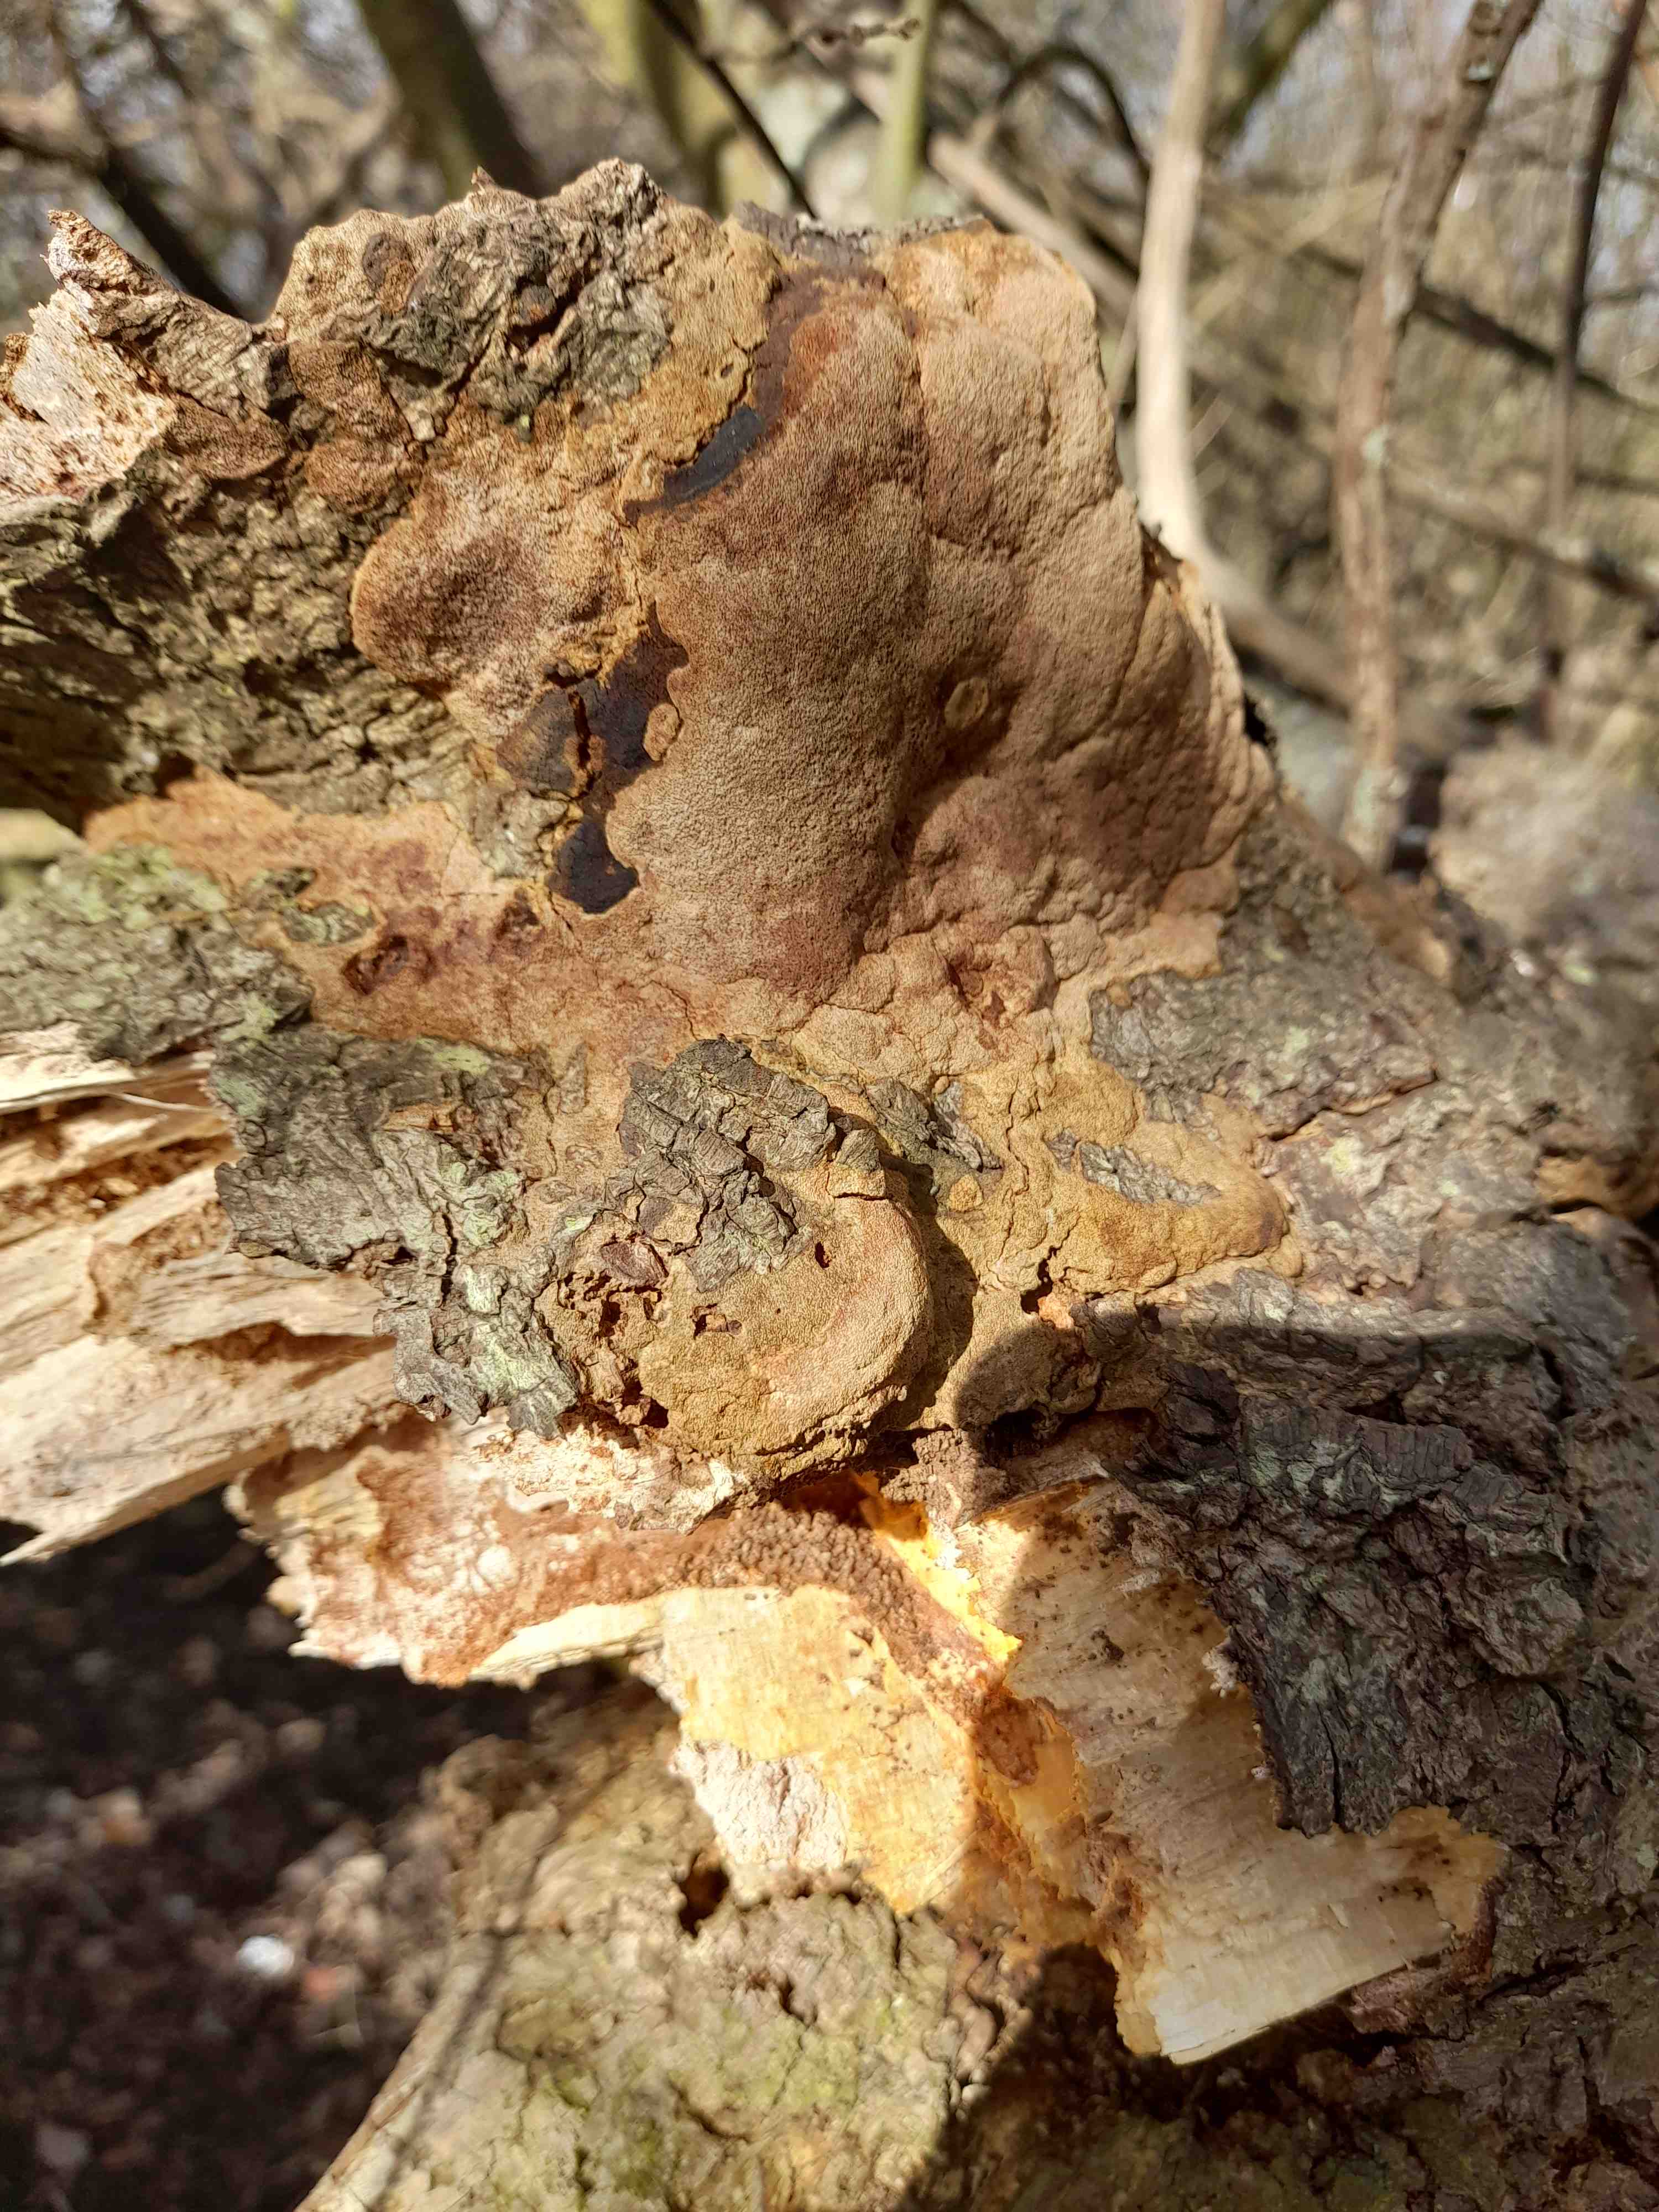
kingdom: Fungi
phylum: Basidiomycota
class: Agaricomycetes
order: Hymenochaetales
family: Hymenochaetaceae
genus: Fuscoporia
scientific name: Fuscoporia ferrea
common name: skorpe-ildporesvamp
